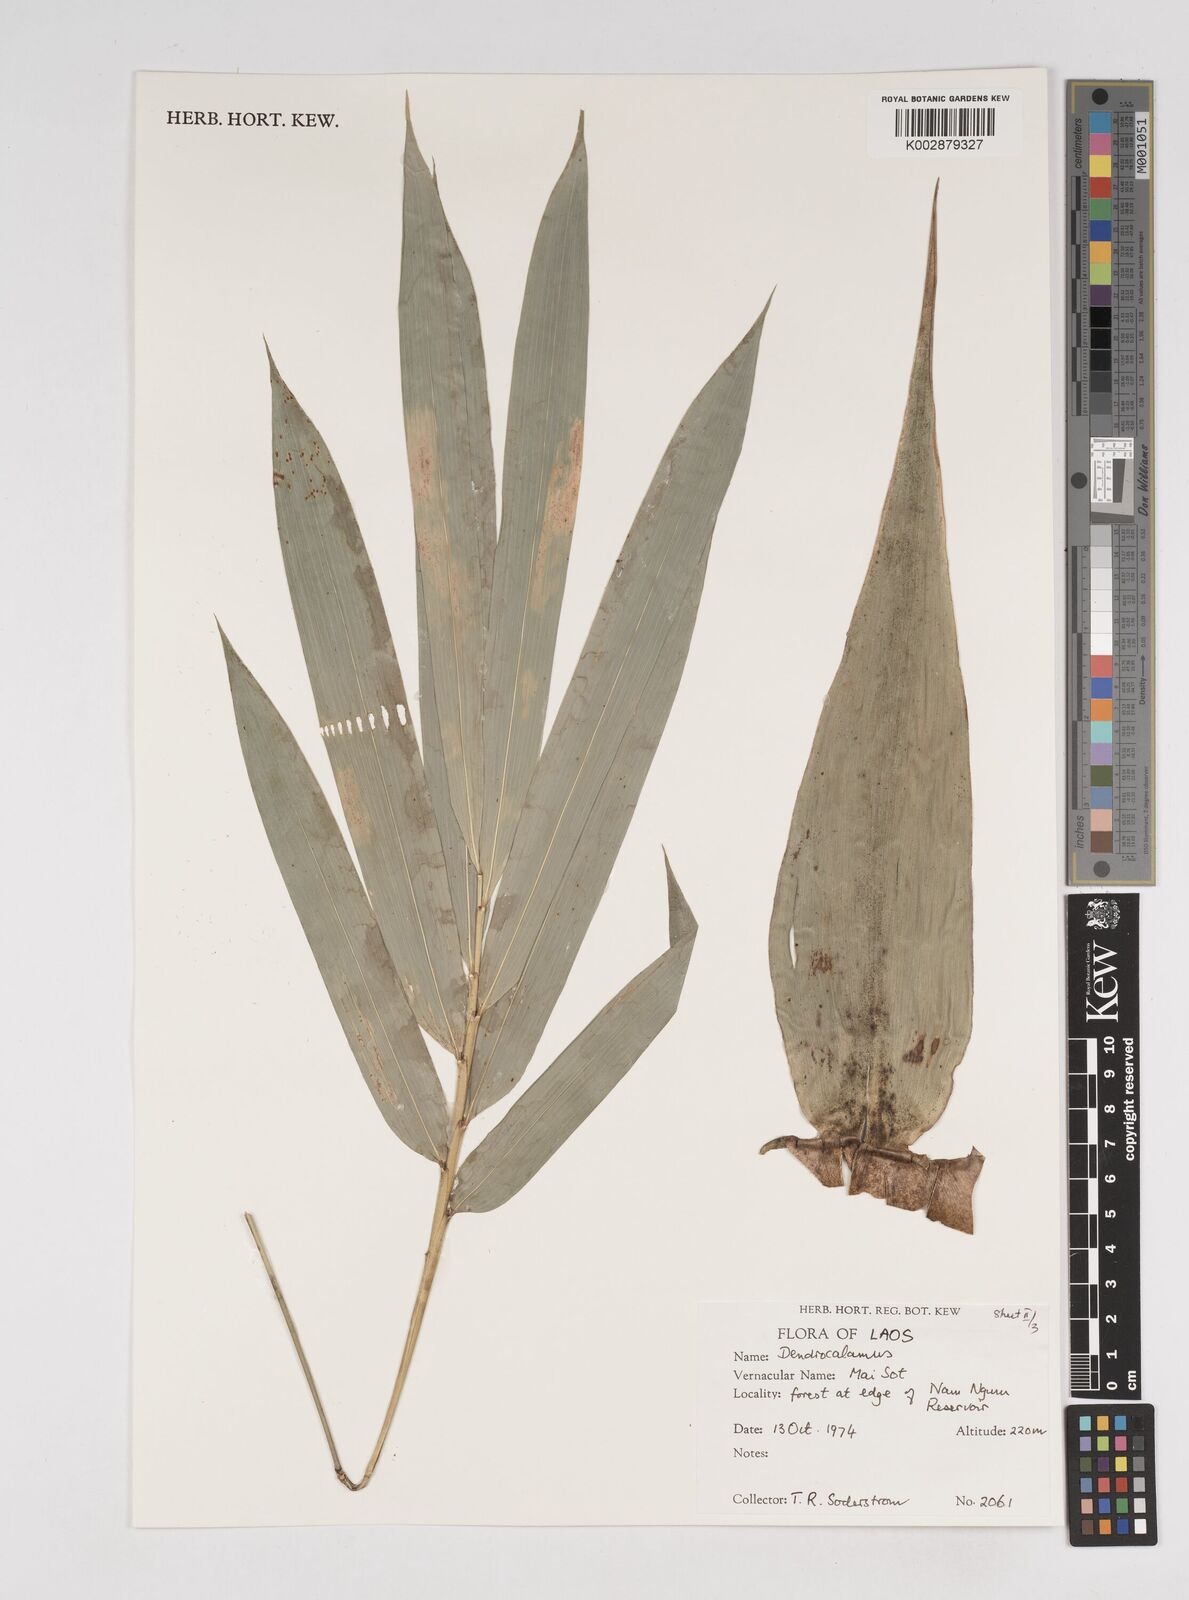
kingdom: Plantae
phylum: Tracheophyta
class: Liliopsida
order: Poales
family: Poaceae
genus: Dendrocalamus
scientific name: Dendrocalamus
